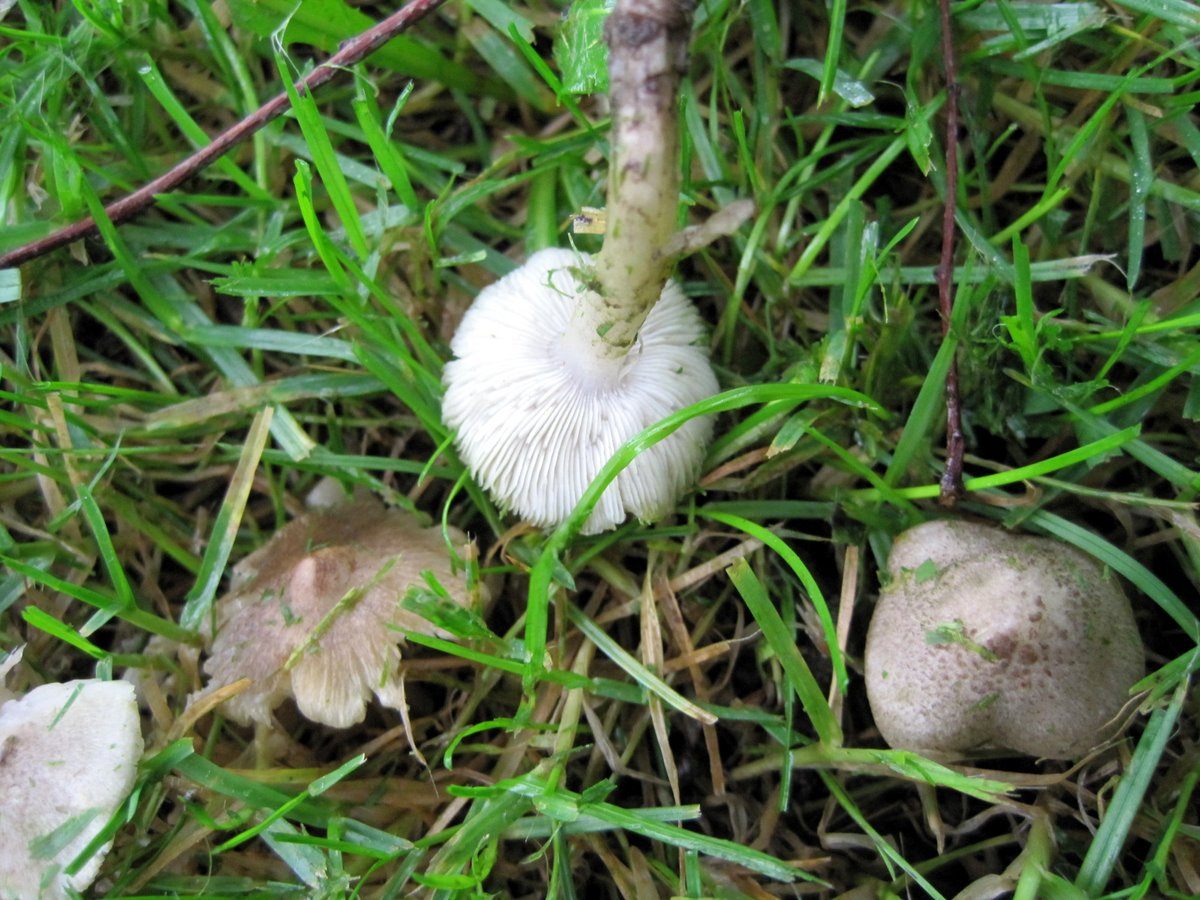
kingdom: Fungi
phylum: Basidiomycota
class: Agaricomycetes
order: Agaricales
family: Tricholomataceae
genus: Tricholoma
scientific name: Tricholoma scalpturatum
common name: gulplettet ridderhat
